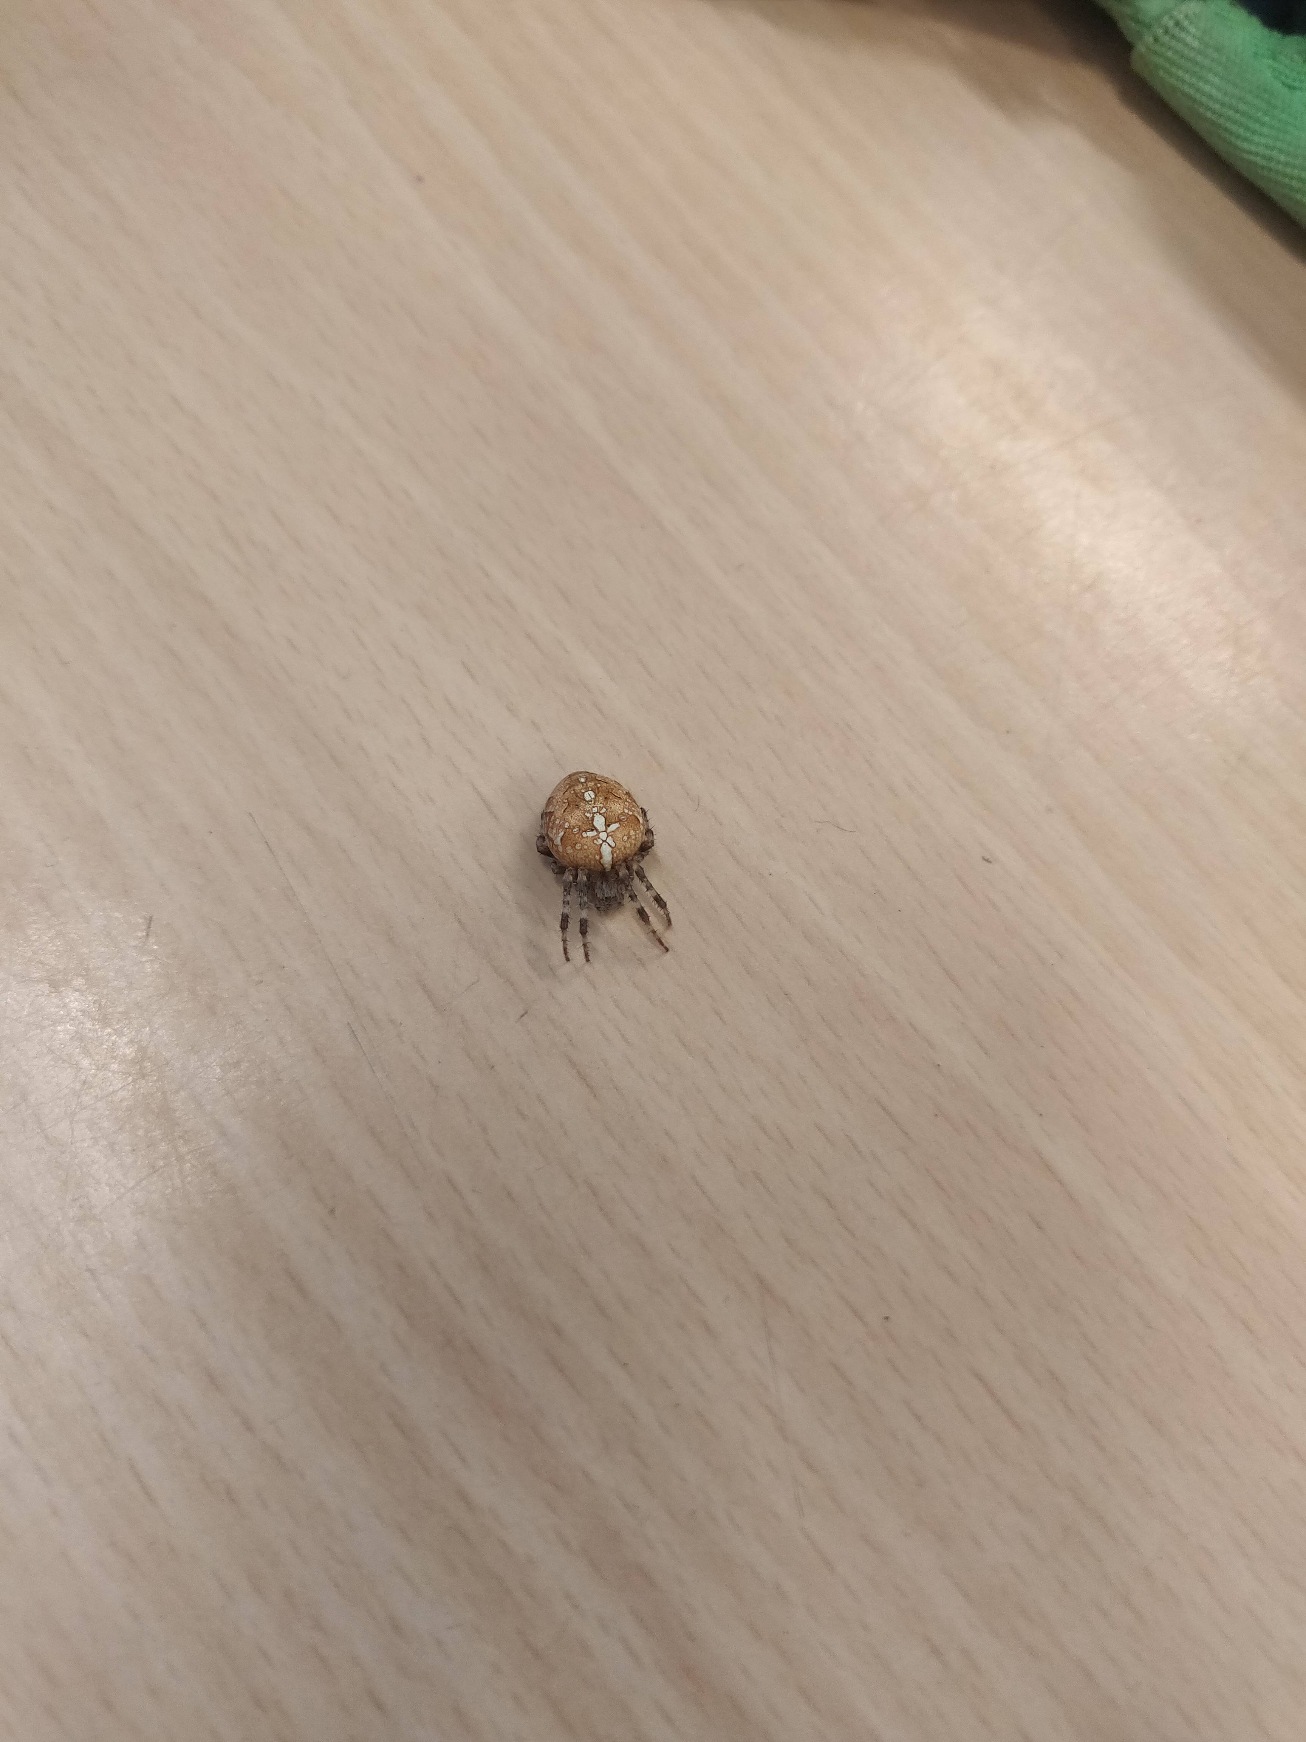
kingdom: Animalia
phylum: Arthropoda
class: Arachnida
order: Araneae
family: Araneidae
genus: Araneus
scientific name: Araneus diadematus
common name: Korsedderkop
